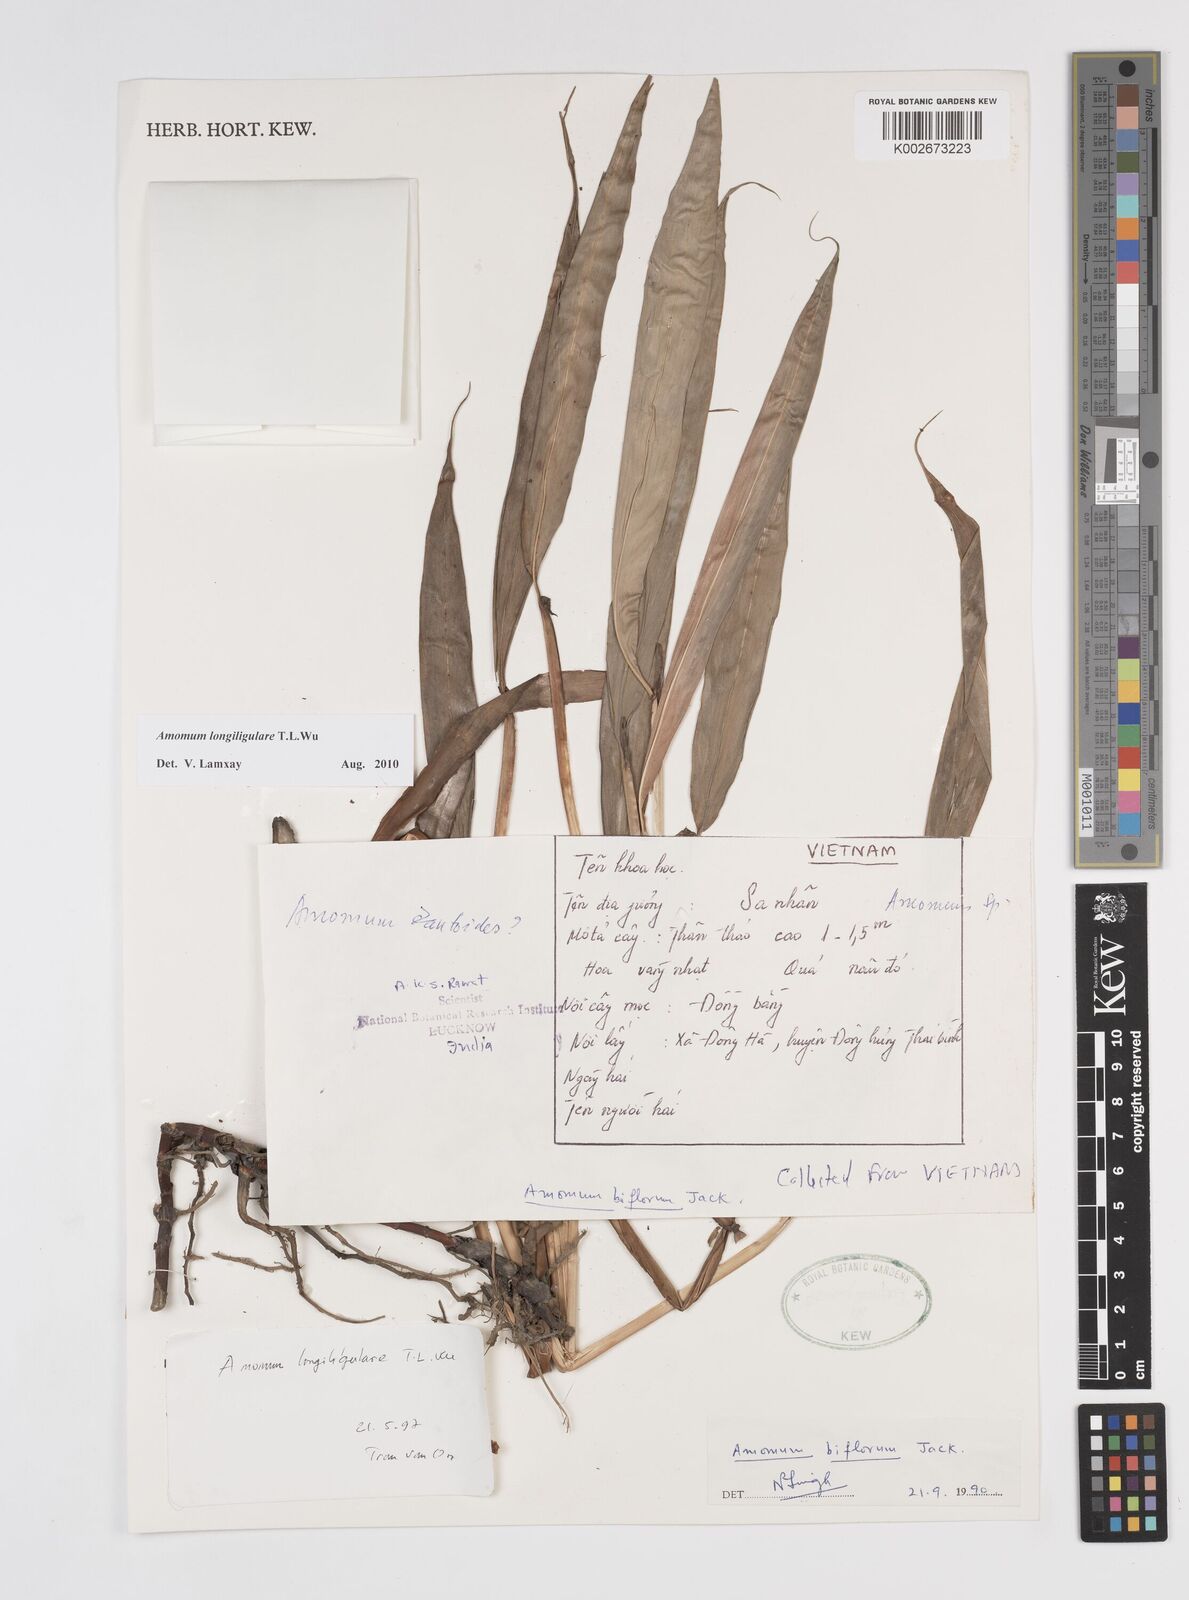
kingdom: Plantae
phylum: Tracheophyta
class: Liliopsida
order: Zingiberales
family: Zingiberaceae
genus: Wurfbainia
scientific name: Wurfbainia longiligularis
